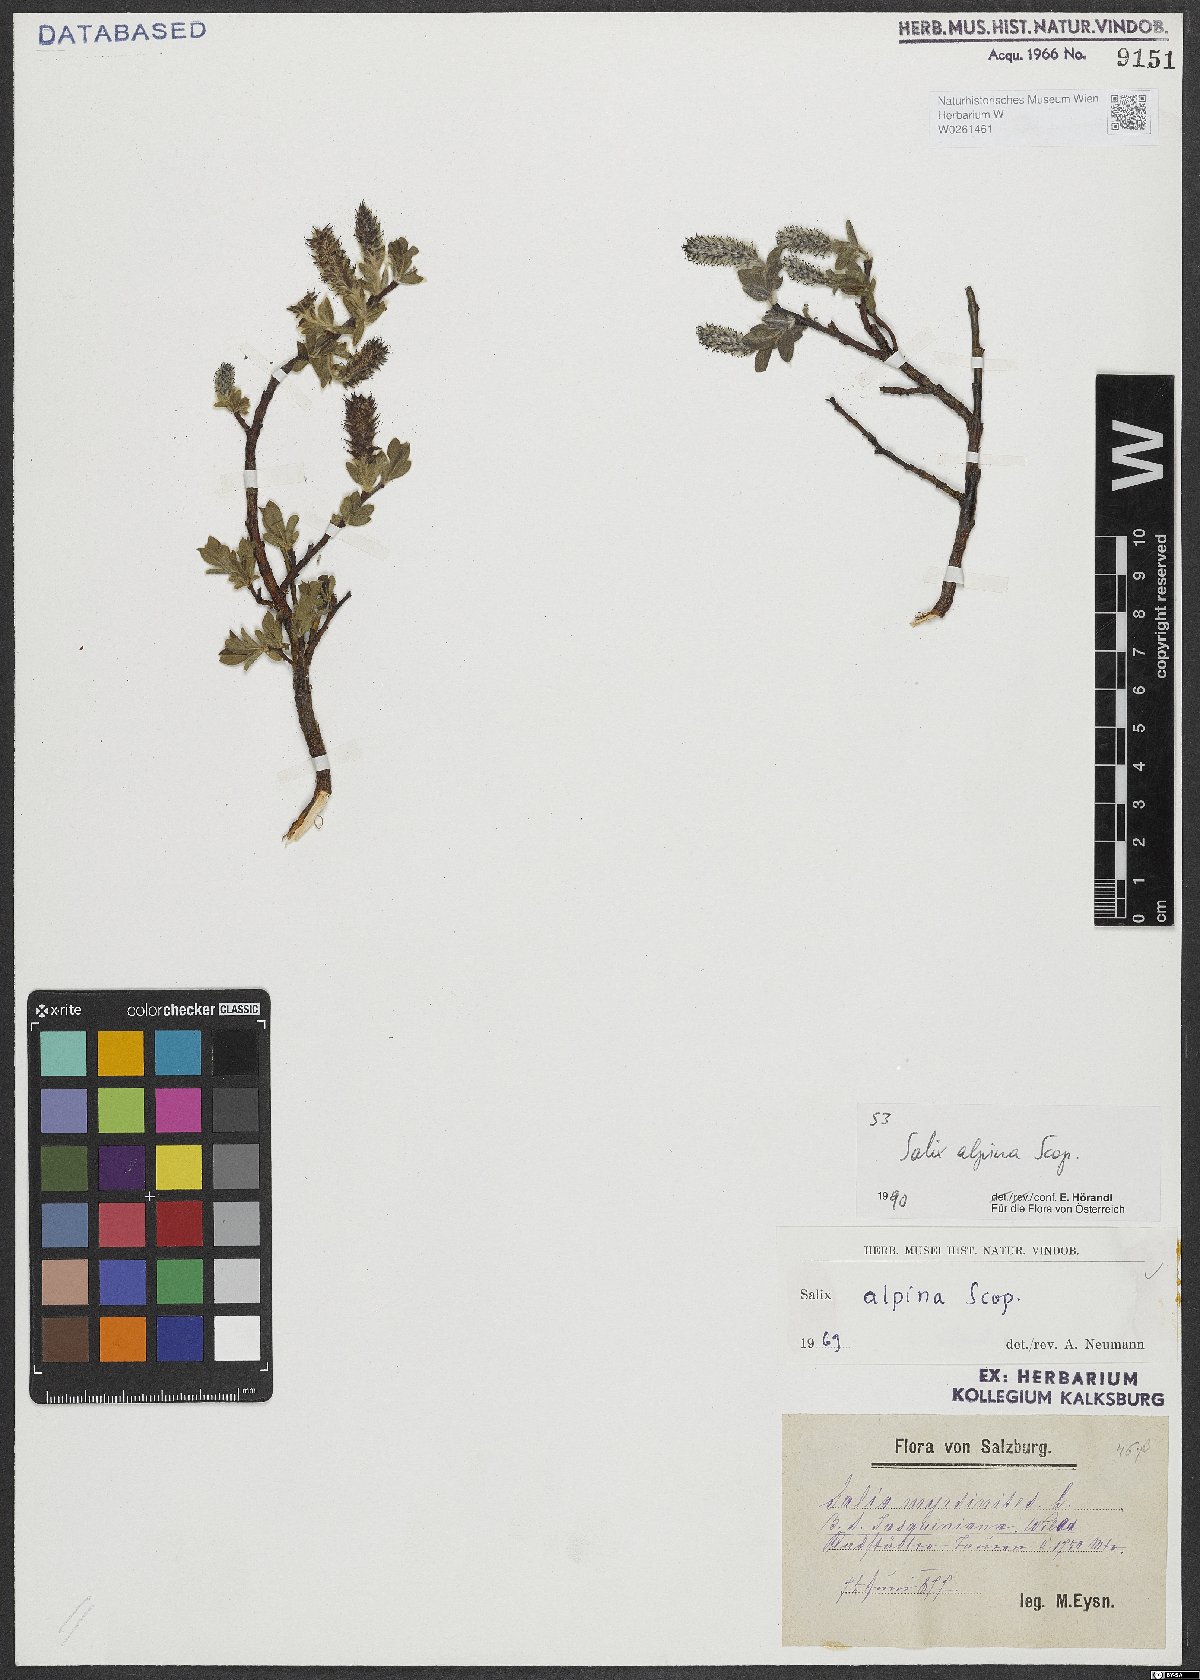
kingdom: Plantae
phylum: Tracheophyta
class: Magnoliopsida
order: Malpighiales
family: Salicaceae
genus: Salix
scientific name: Salix alpina
